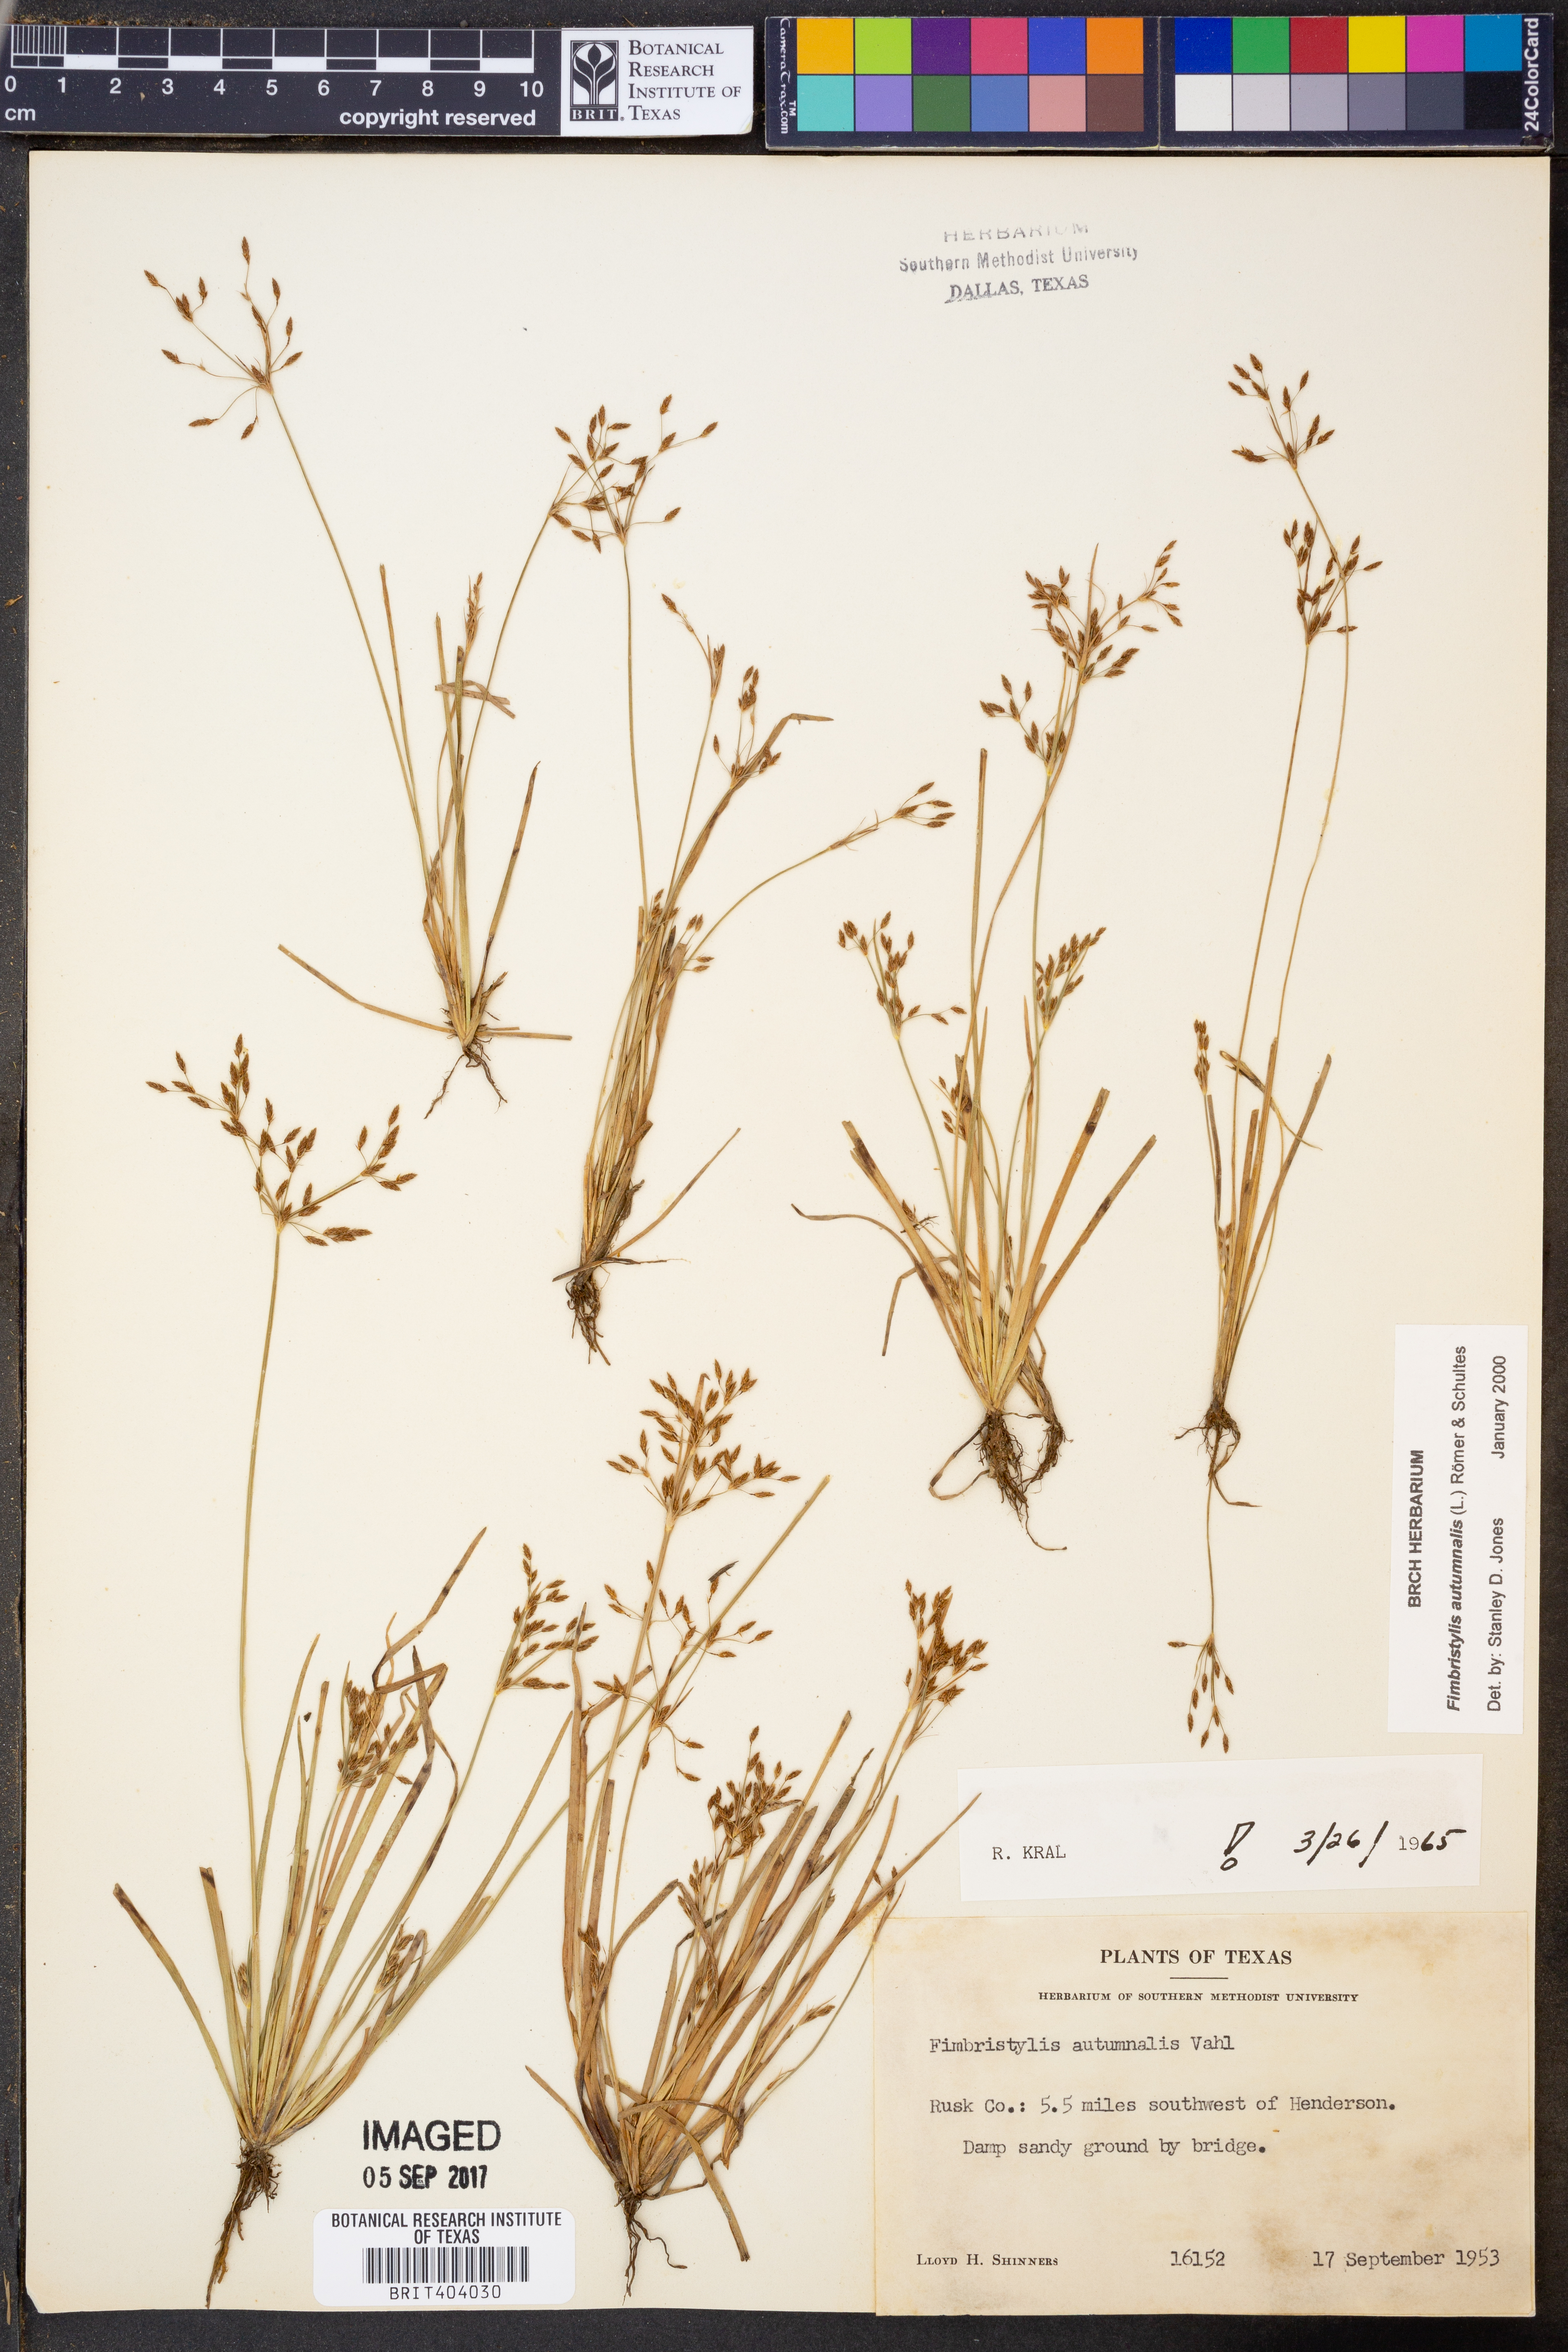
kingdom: Plantae
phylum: Tracheophyta
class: Liliopsida
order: Poales
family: Cyperaceae
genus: Fimbristylis
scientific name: Fimbristylis autumnalis
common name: Slender fimbristylis
